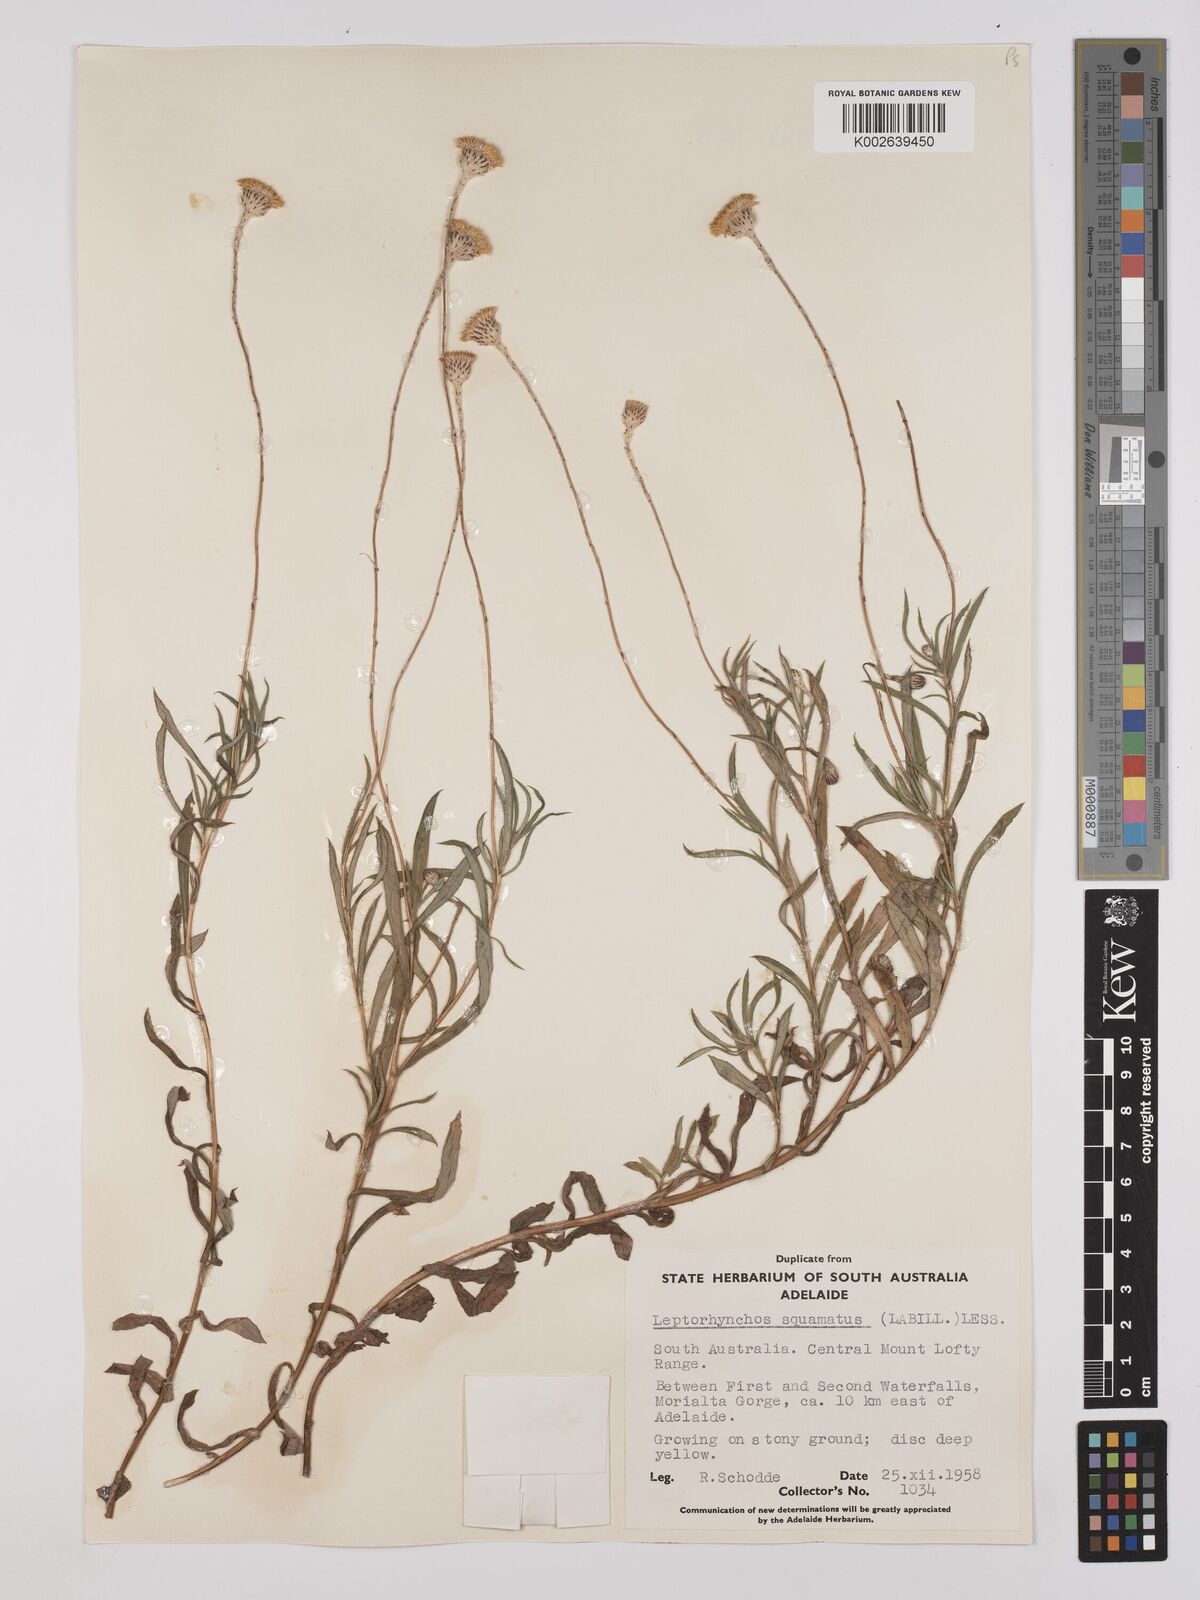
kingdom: Plantae
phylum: Tracheophyta
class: Magnoliopsida
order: Asterales
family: Asteraceae
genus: Leptorhynchos
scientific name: Leptorhynchos squamatus
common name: Scaly-buttons
